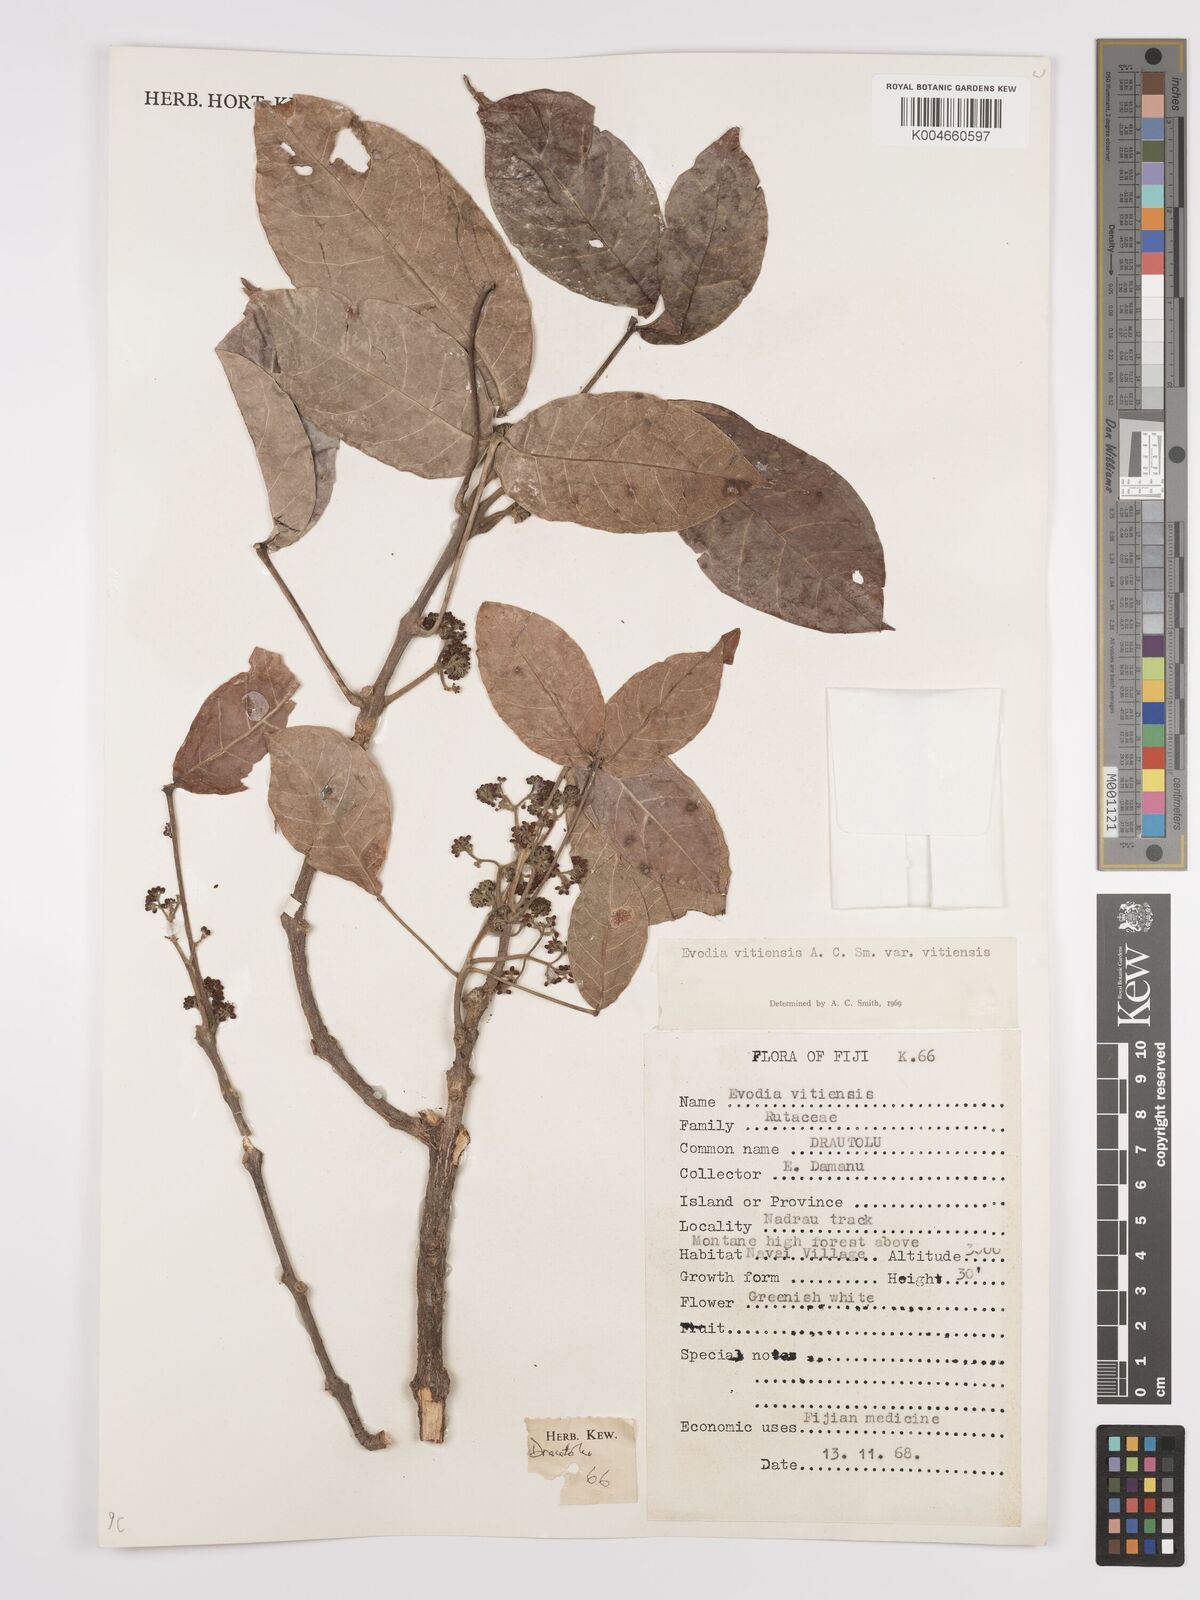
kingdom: Plantae
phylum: Tracheophyta
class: Magnoliopsida
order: Sapindales
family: Rutaceae
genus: Melicope
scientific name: Melicope cucullata
